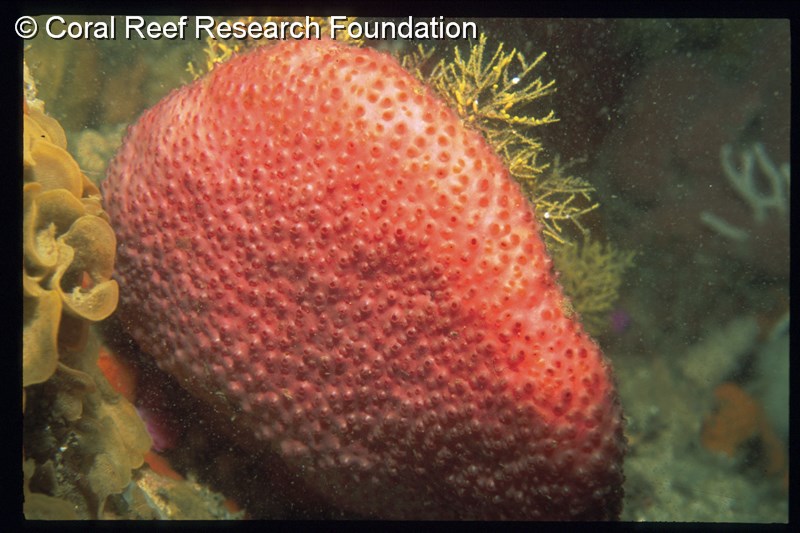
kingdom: Animalia
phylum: Chordata
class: Ascidiacea
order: Stolidobranchia
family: Styelidae
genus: Gynandrocarpa
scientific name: Gynandrocarpa placenta
